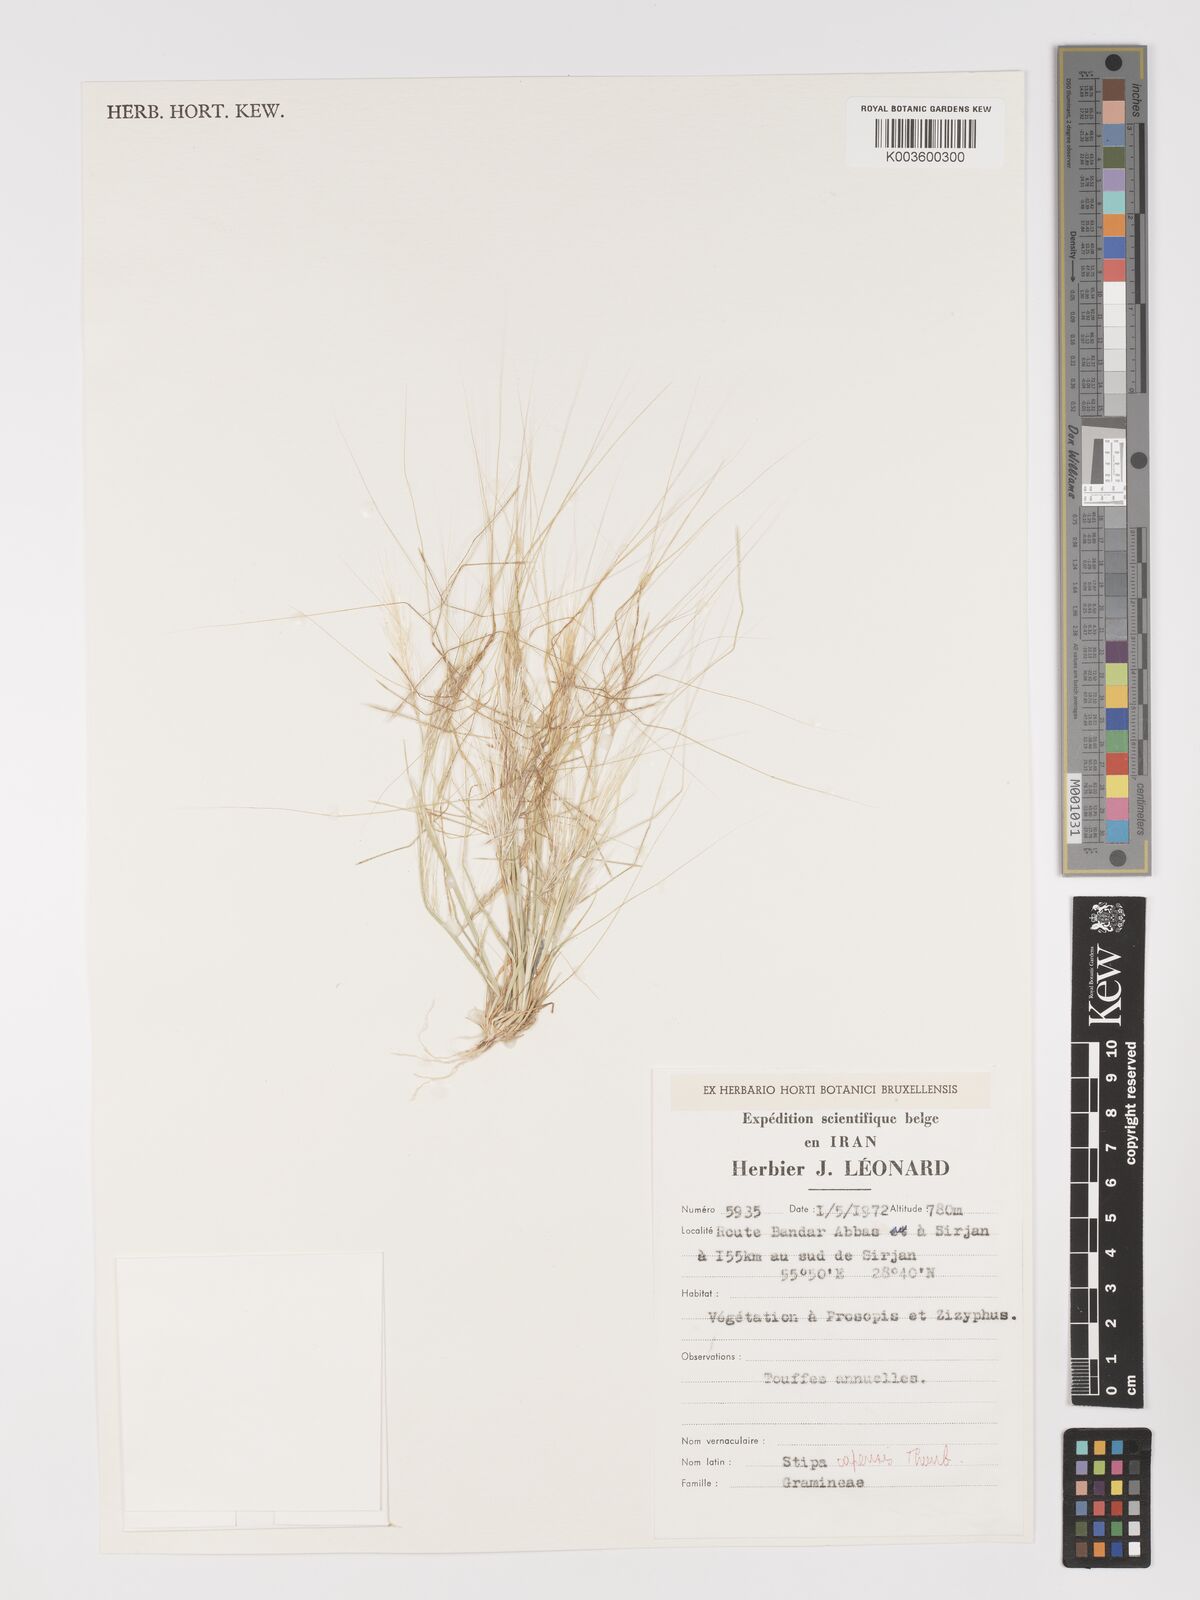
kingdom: Plantae
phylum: Tracheophyta
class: Liliopsida
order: Poales
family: Poaceae
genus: Stipellula
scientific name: Stipellula capensis
